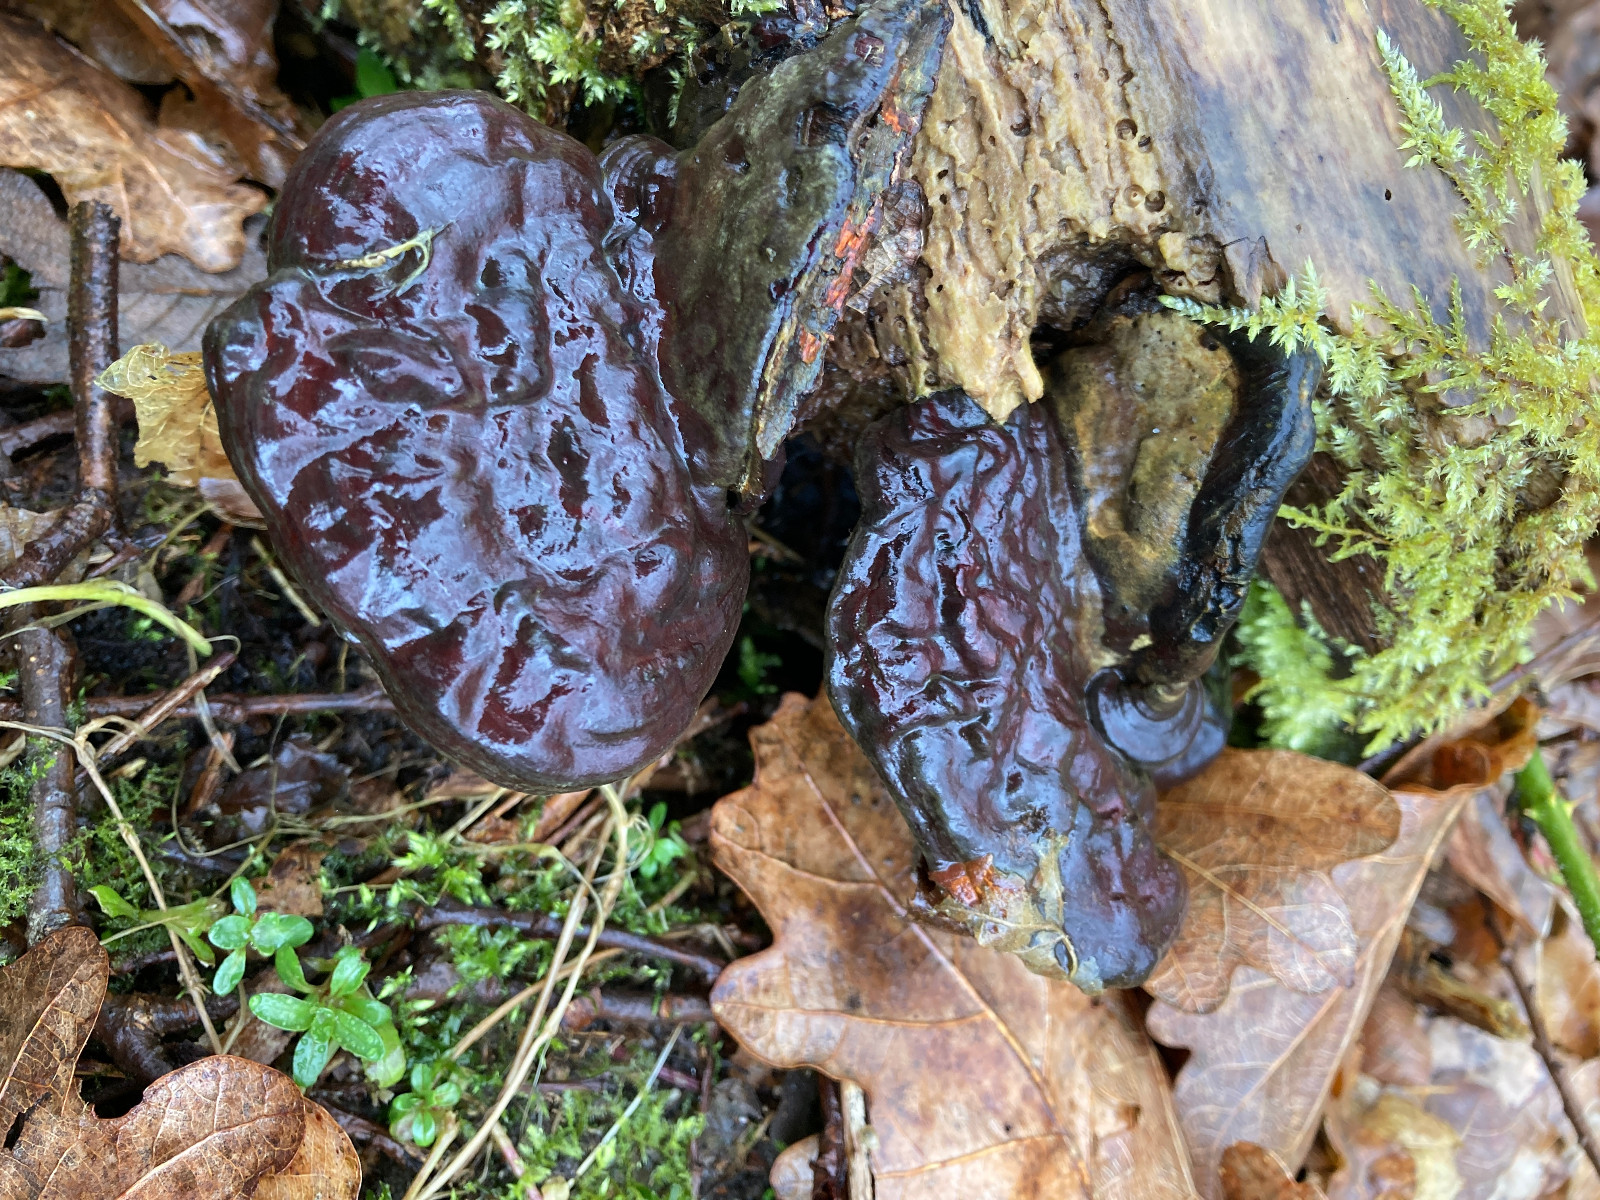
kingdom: Fungi
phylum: Basidiomycota
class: Agaricomycetes
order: Polyporales
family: Polyporaceae
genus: Ganoderma
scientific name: Ganoderma applanatum
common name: flad lakporesvamp
